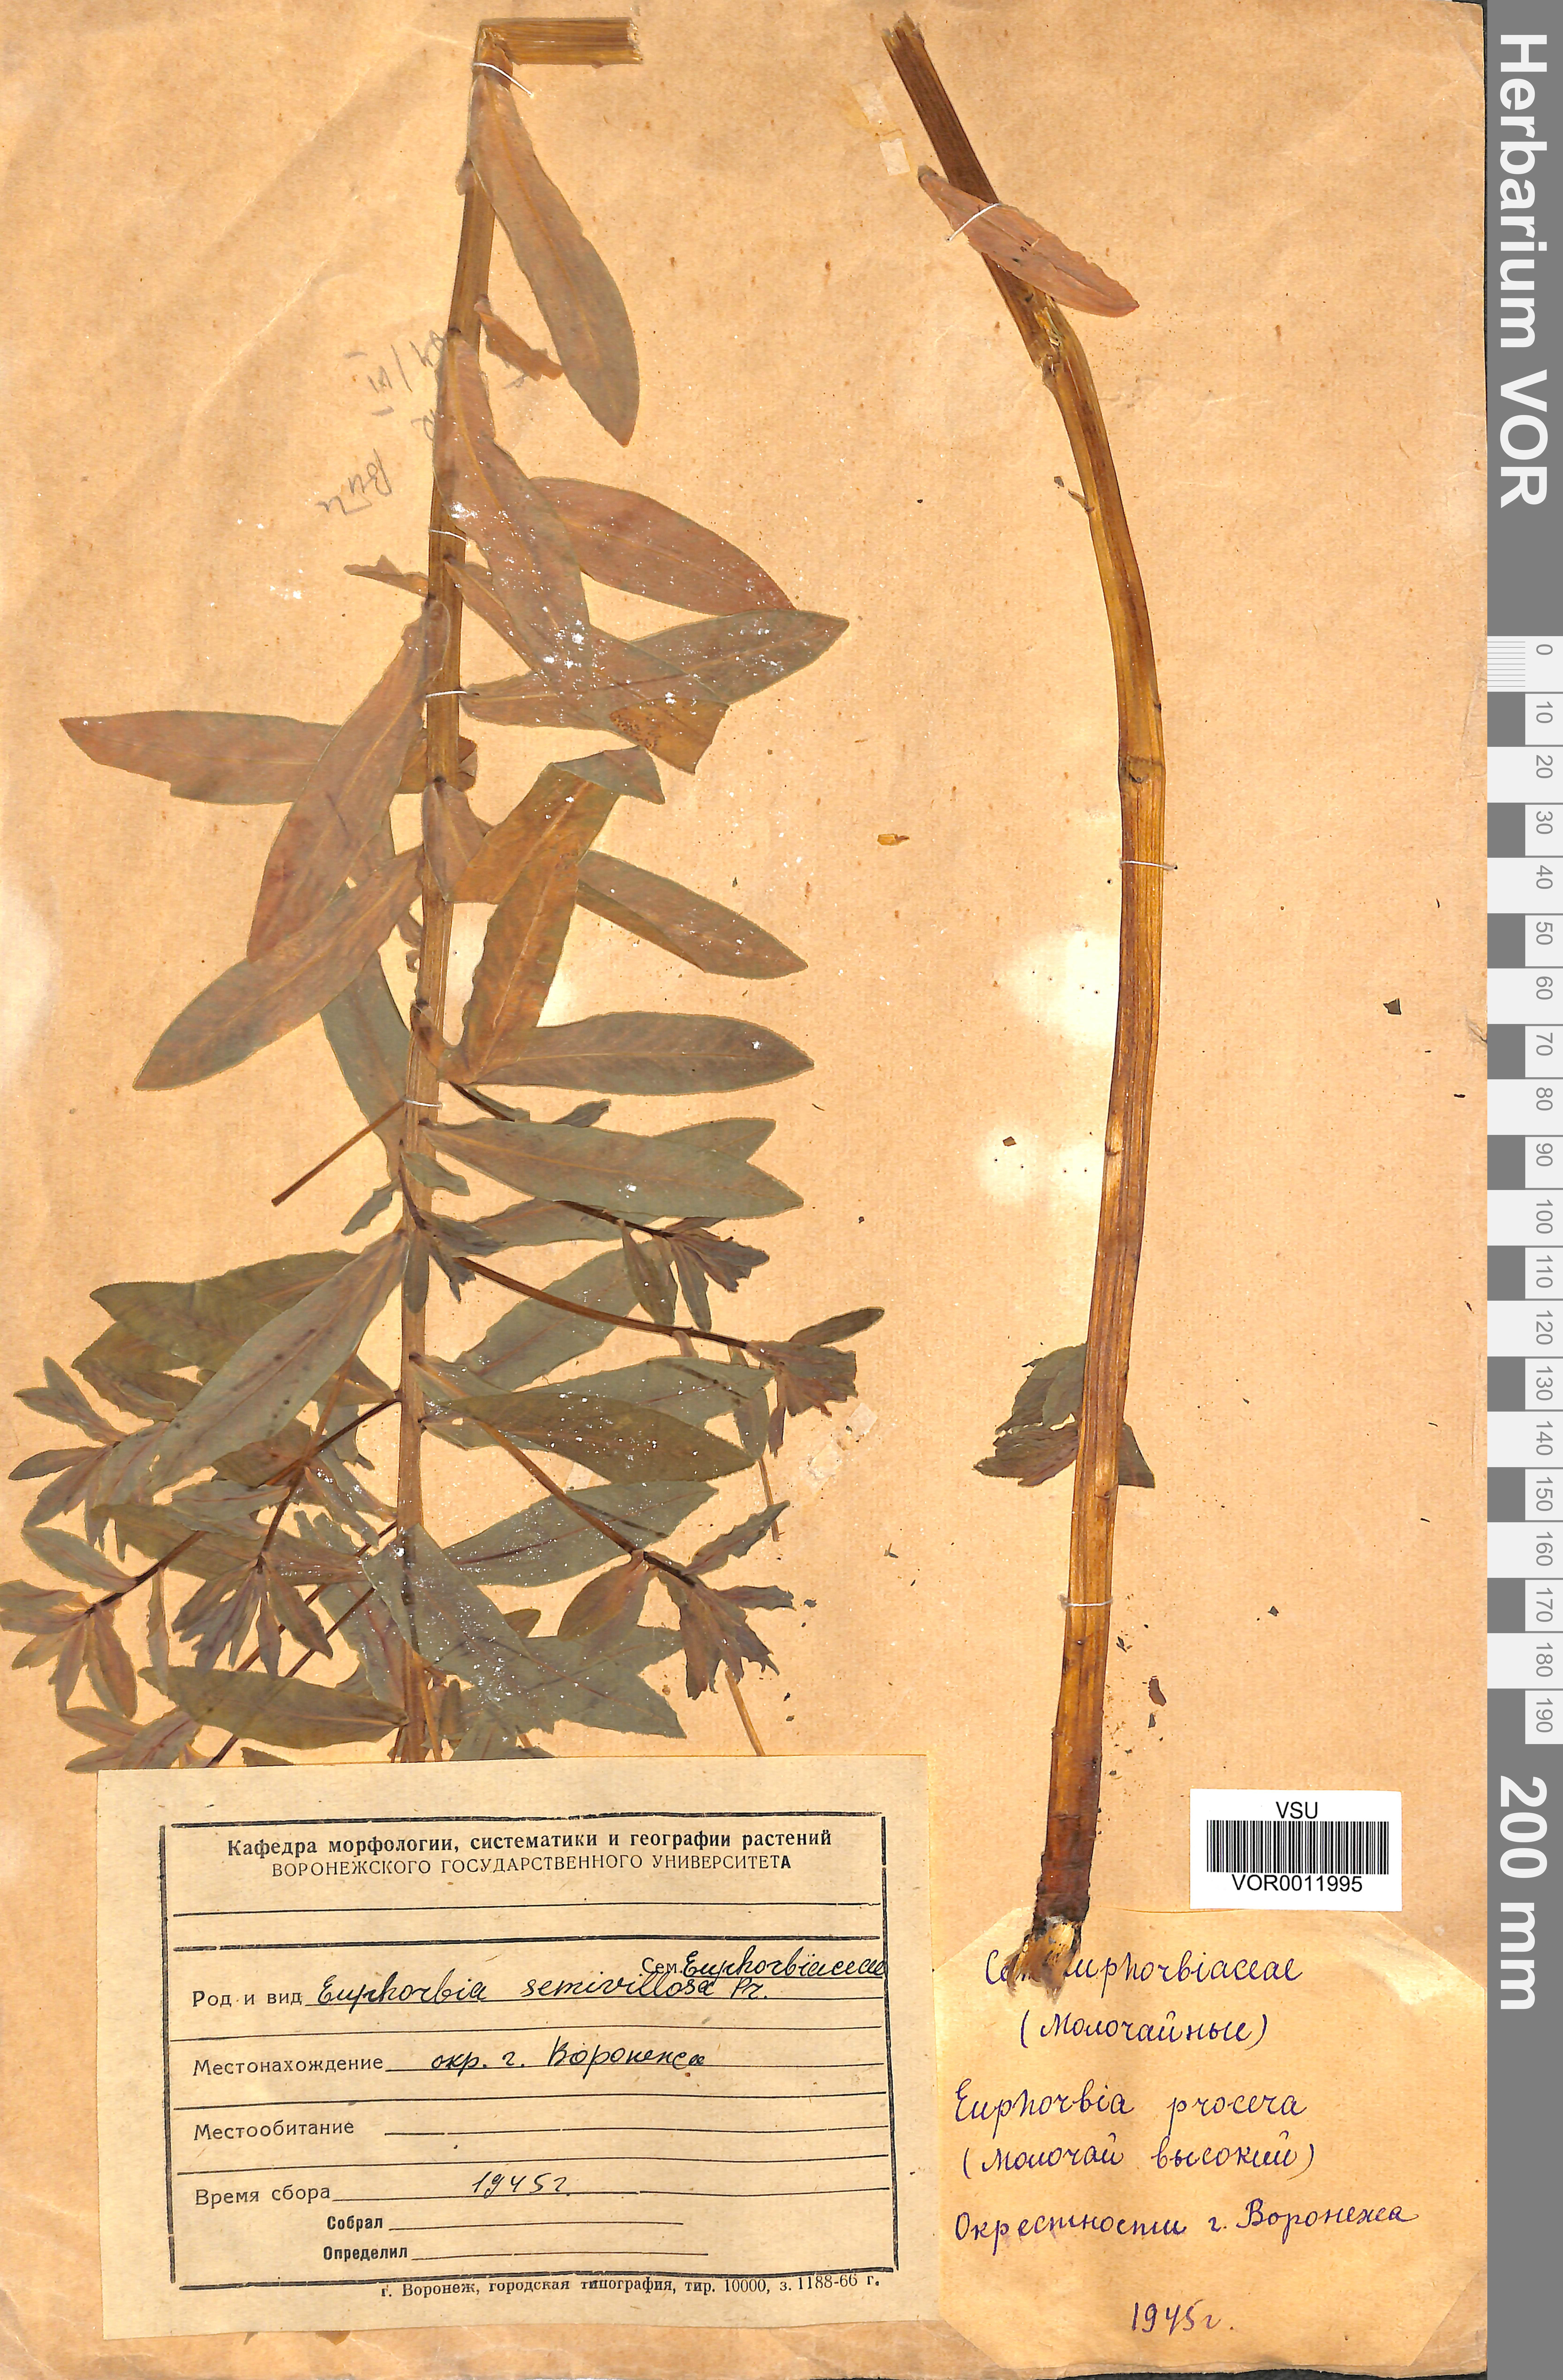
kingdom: Plantae
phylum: Tracheophyta
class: Magnoliopsida
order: Malpighiales
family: Euphorbiaceae
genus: Euphorbia
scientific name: Euphorbia semivillosa
